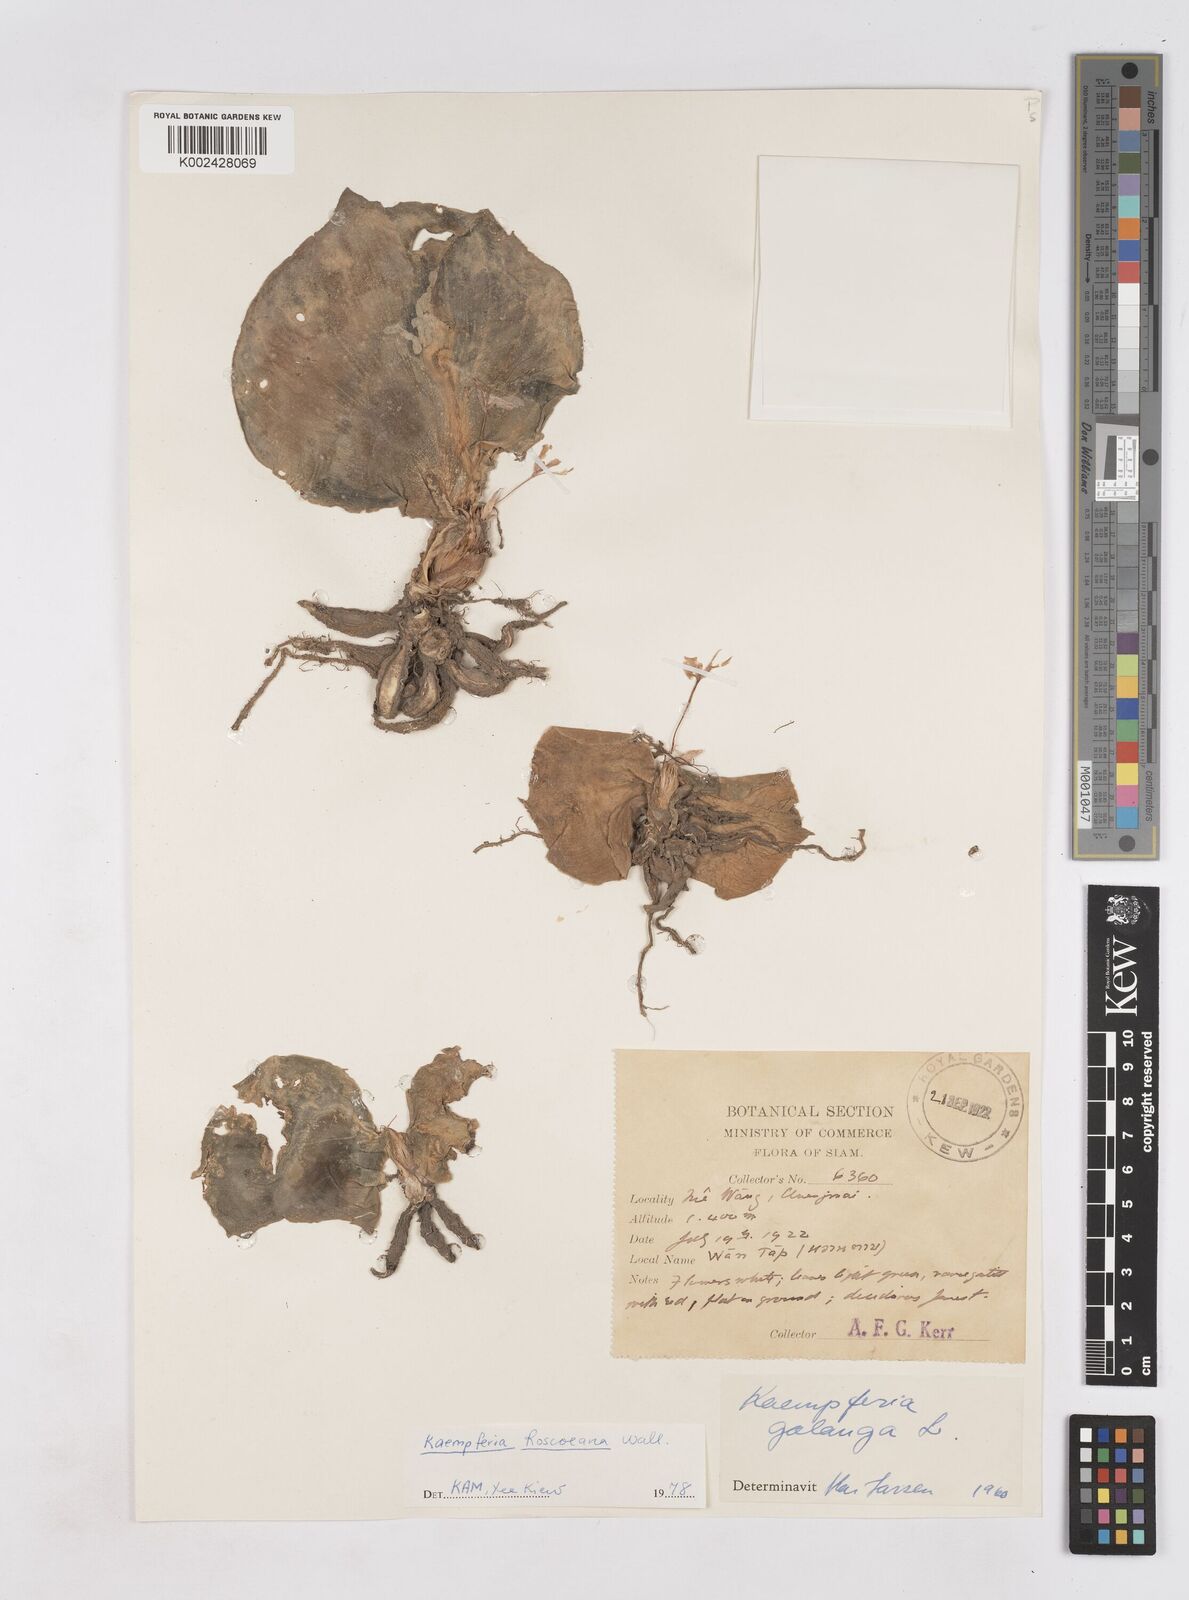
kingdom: Plantae
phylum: Tracheophyta
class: Liliopsida
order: Zingiberales
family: Zingiberaceae
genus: Kaempferia
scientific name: Kaempferia roscoeana
